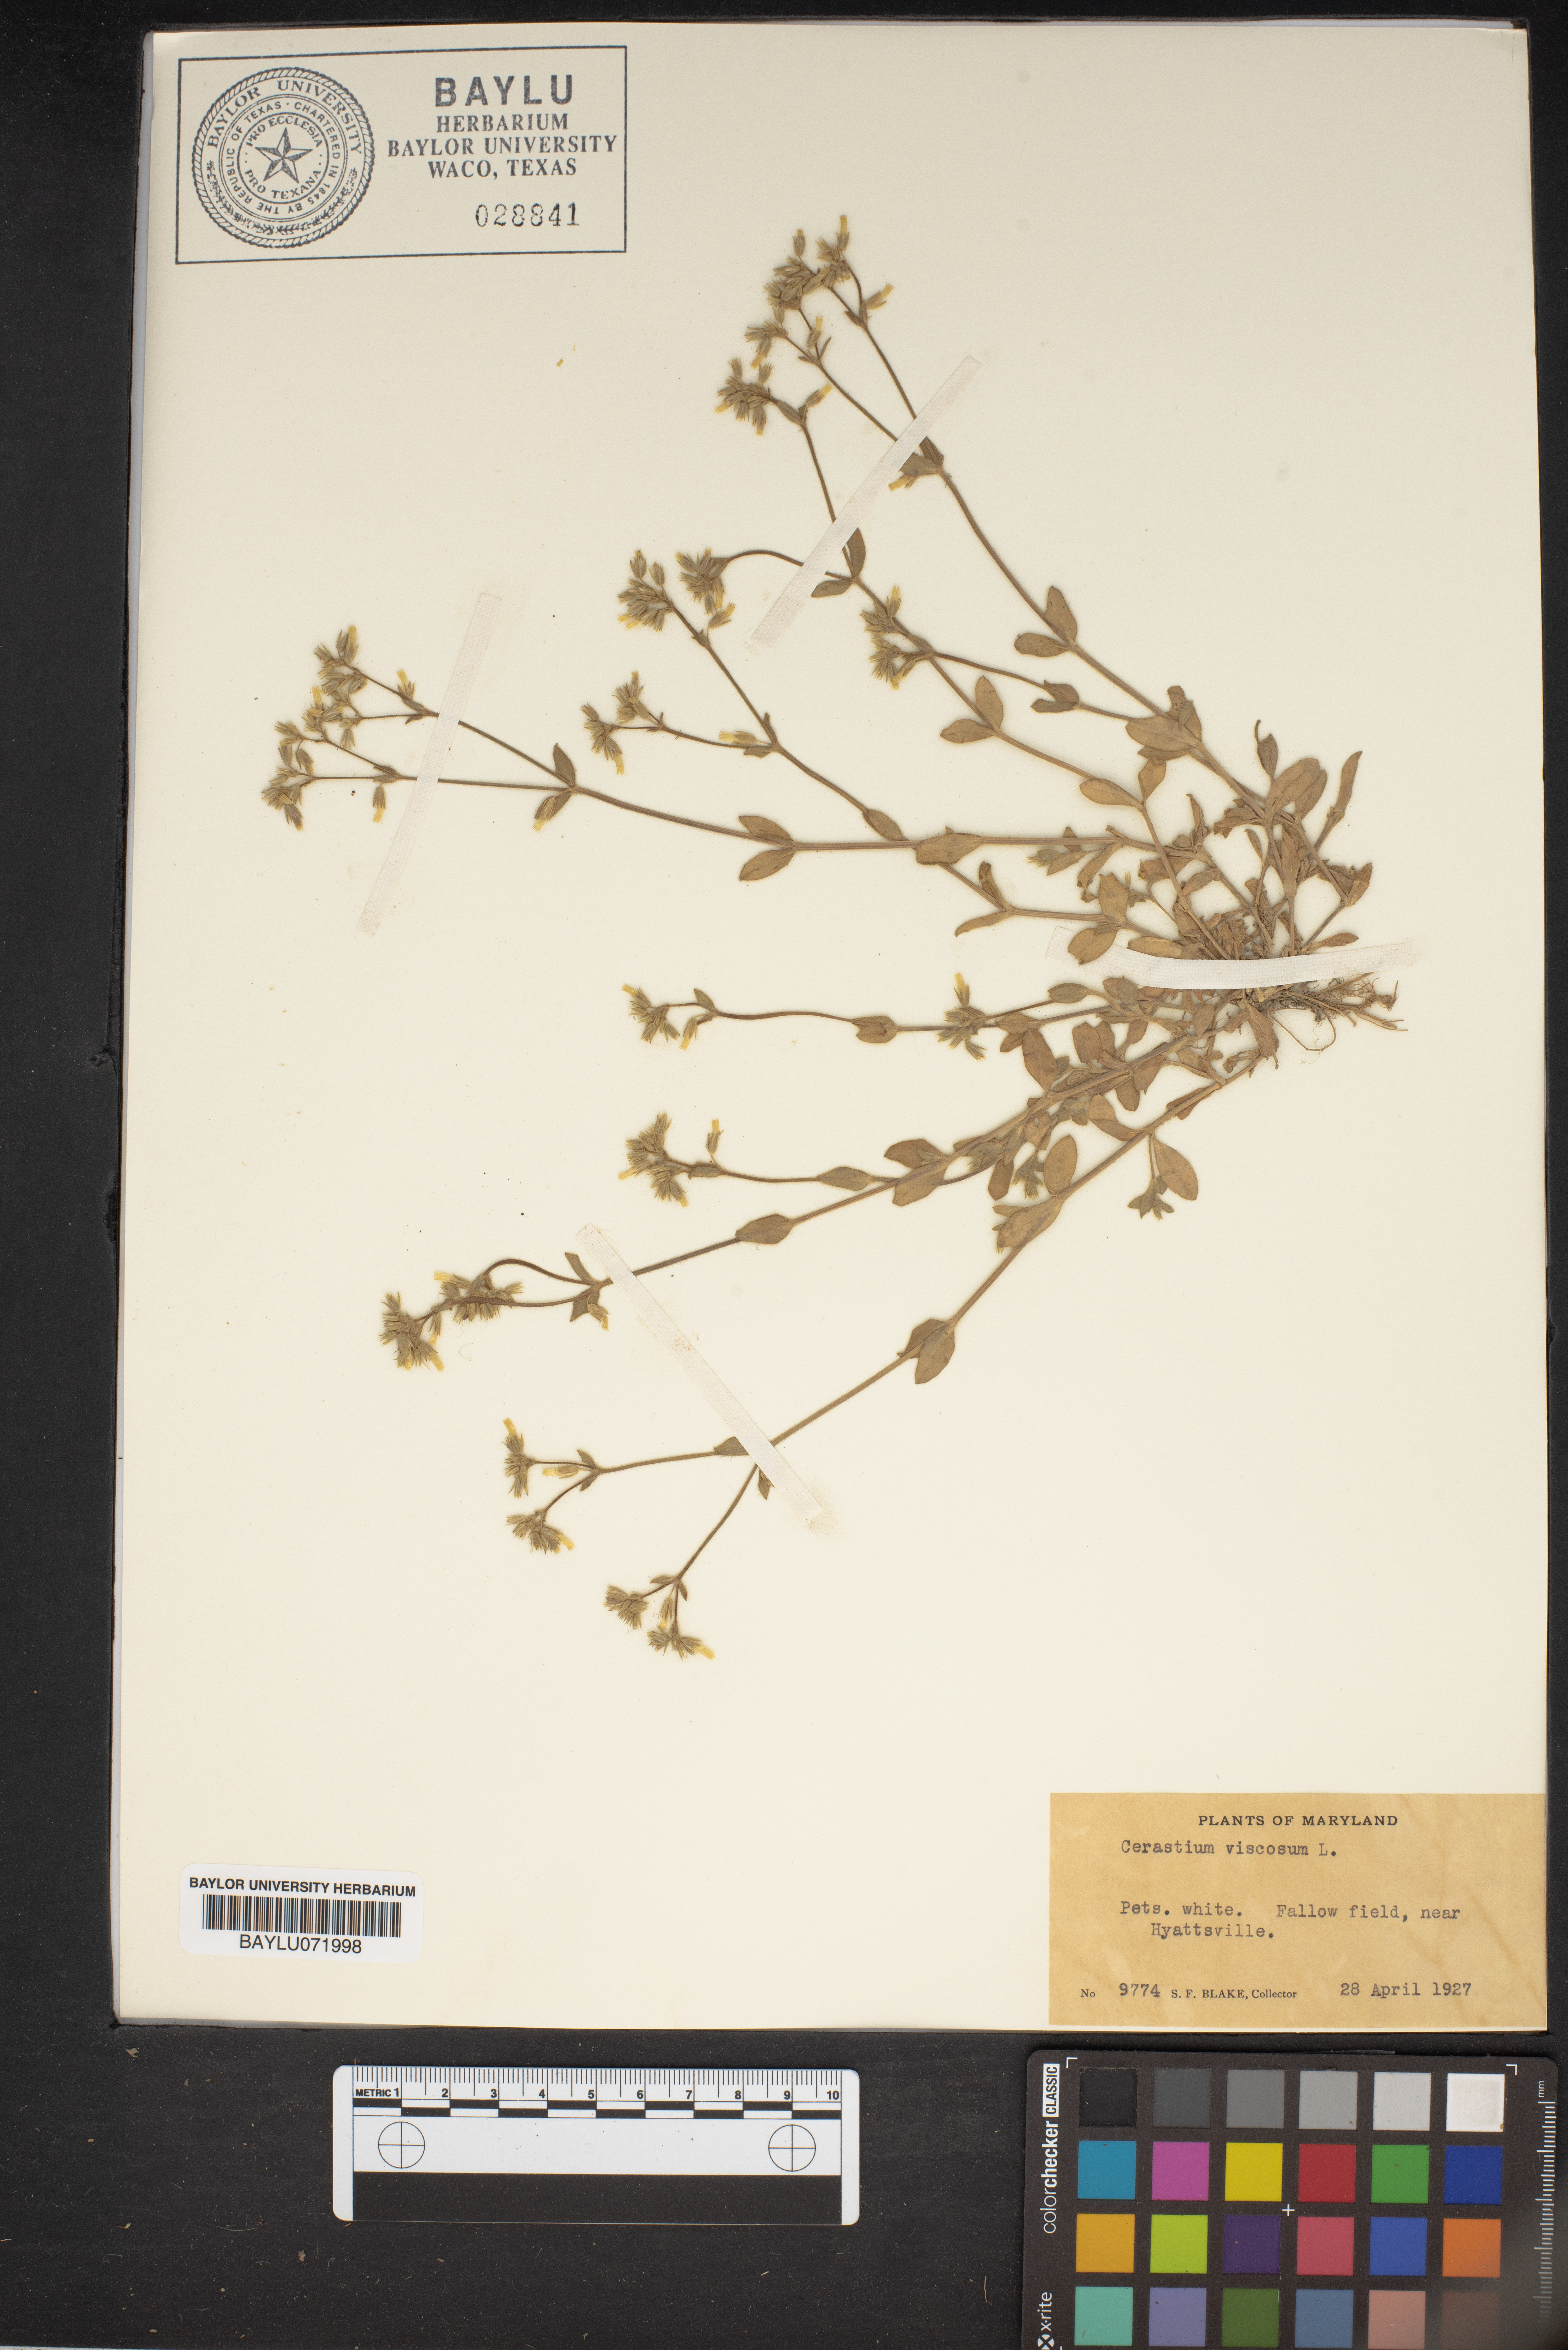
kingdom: Plantae
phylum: Tracheophyta
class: Magnoliopsida
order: Caryophyllales
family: Caryophyllaceae
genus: Cerastium
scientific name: Cerastium holosteoides
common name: Big chickweed
